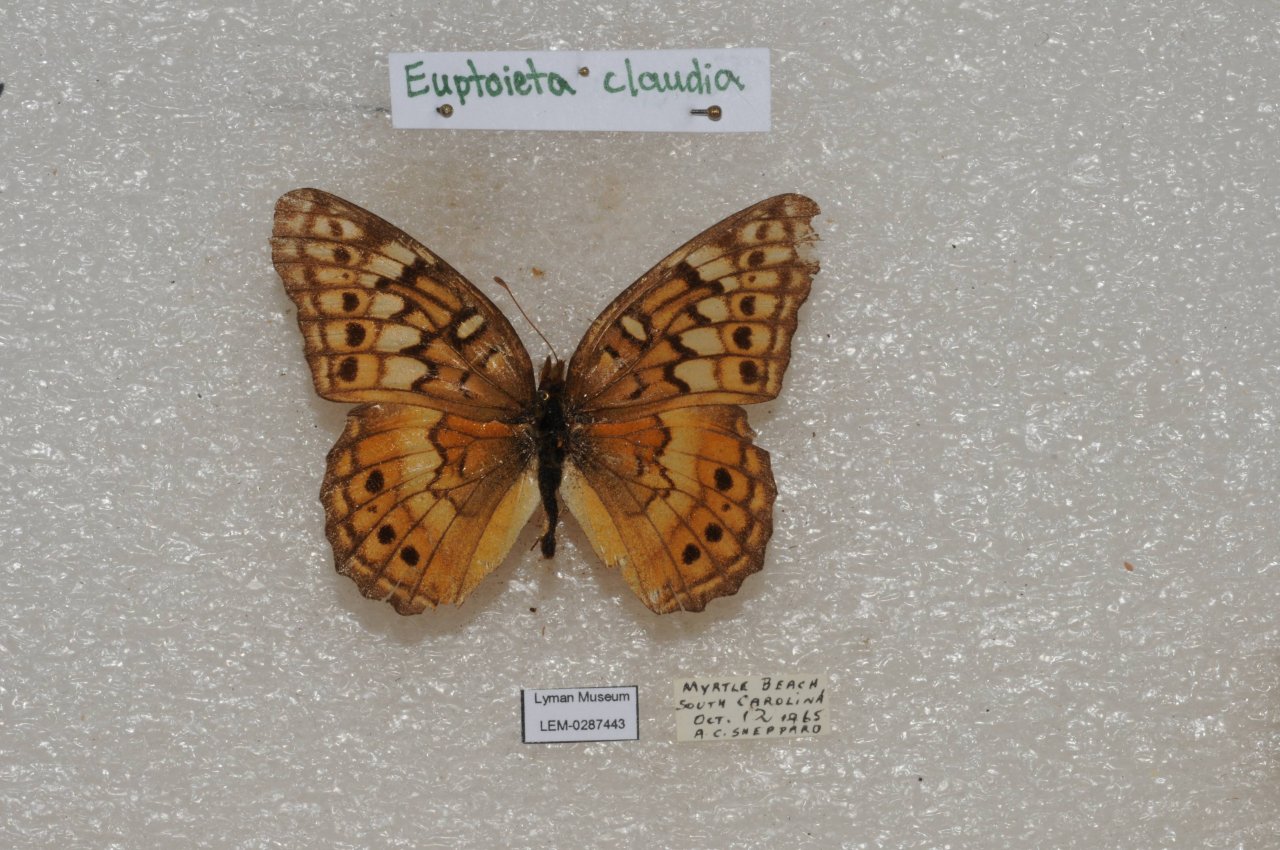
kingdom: Animalia
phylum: Arthropoda
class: Insecta
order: Lepidoptera
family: Nymphalidae
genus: Euptoieta
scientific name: Euptoieta claudia
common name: Variegated Fritillary
